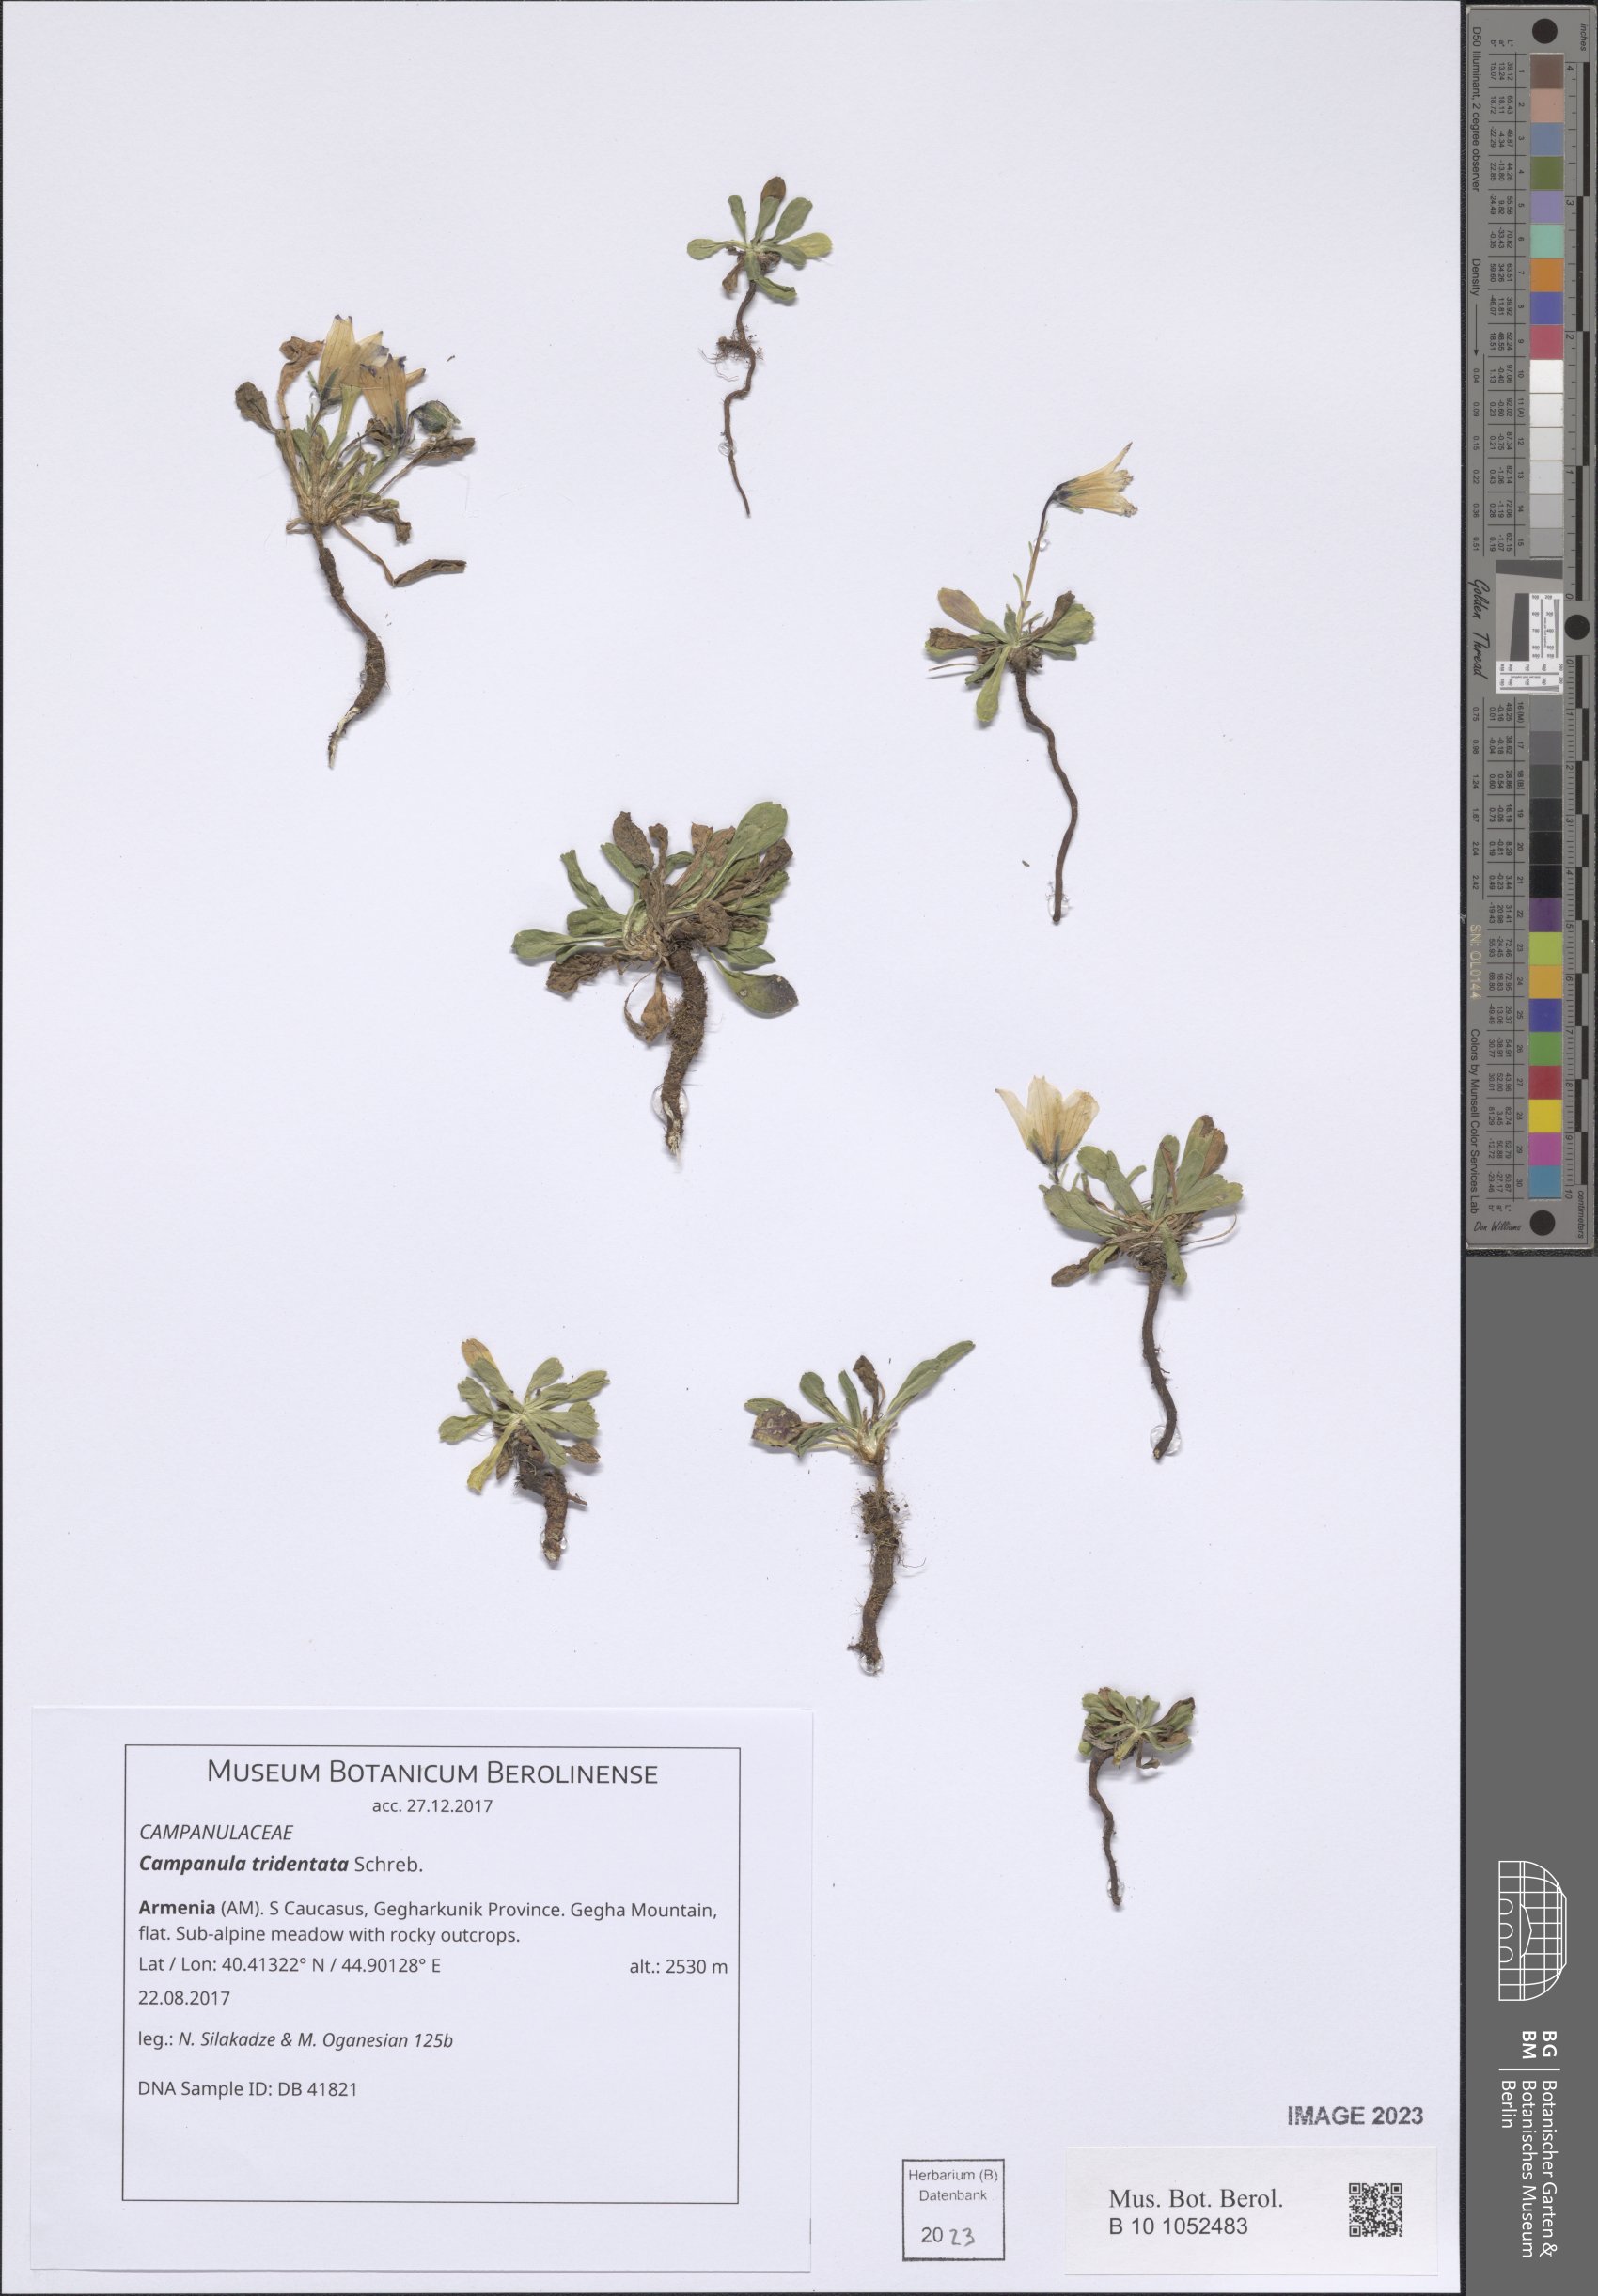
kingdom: Plantae
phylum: Tracheophyta
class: Magnoliopsida
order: Asterales
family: Campanulaceae
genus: Campanula
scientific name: Campanula tridentata
